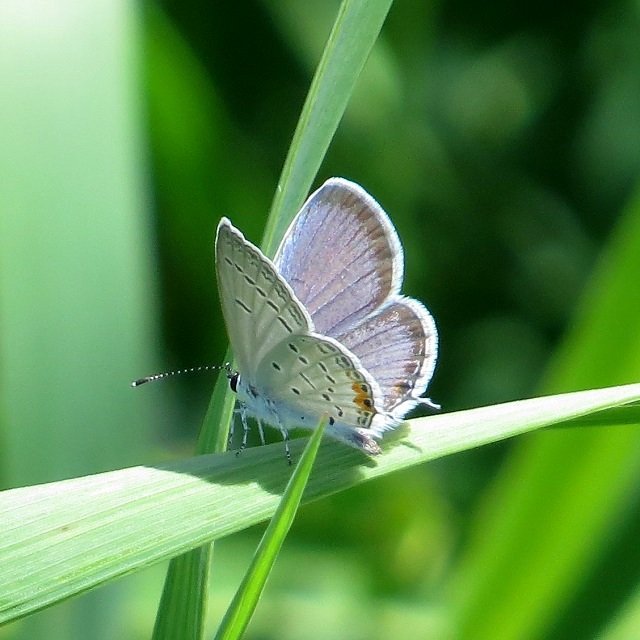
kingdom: Animalia
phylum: Arthropoda
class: Insecta
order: Lepidoptera
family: Lycaenidae
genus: Elkalyce
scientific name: Elkalyce comyntas
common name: Eastern Tailed-Blue
